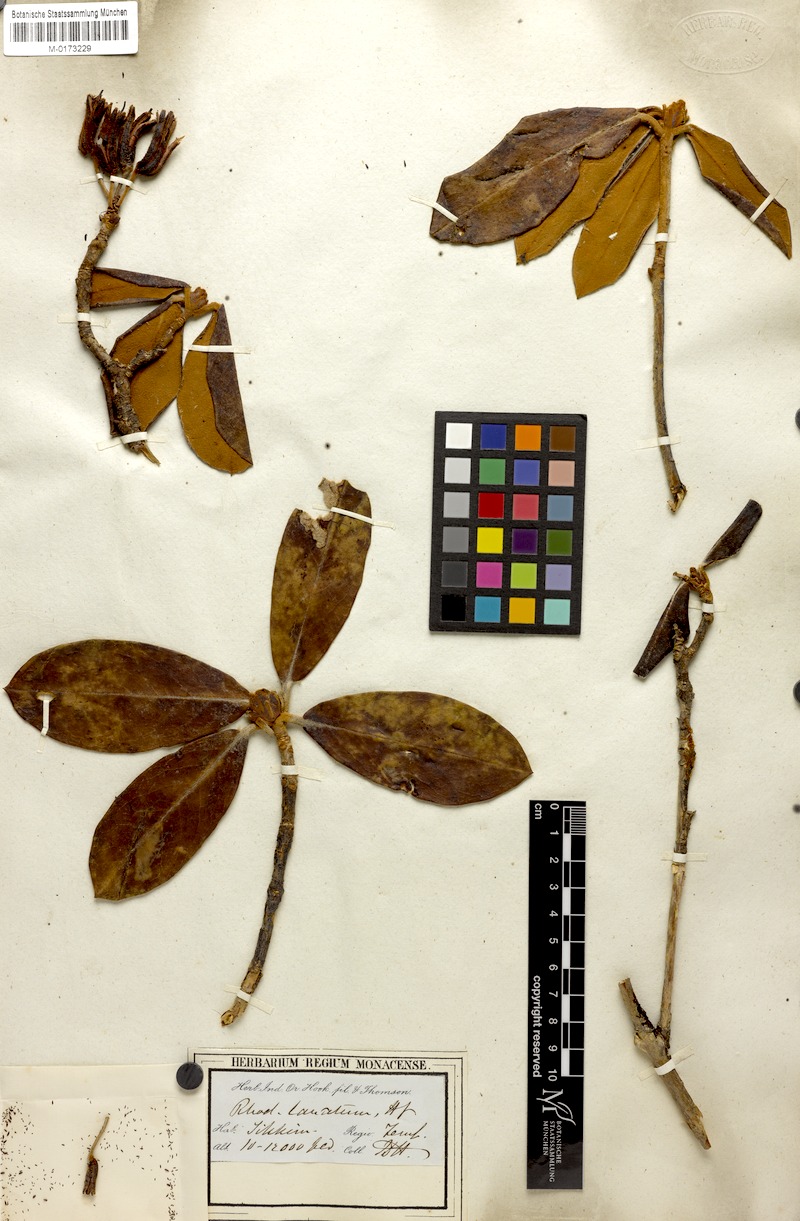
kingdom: Plantae
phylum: Tracheophyta
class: Magnoliopsida
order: Ericales
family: Ericaceae
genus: Rhododendron
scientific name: Rhododendron lanatum
